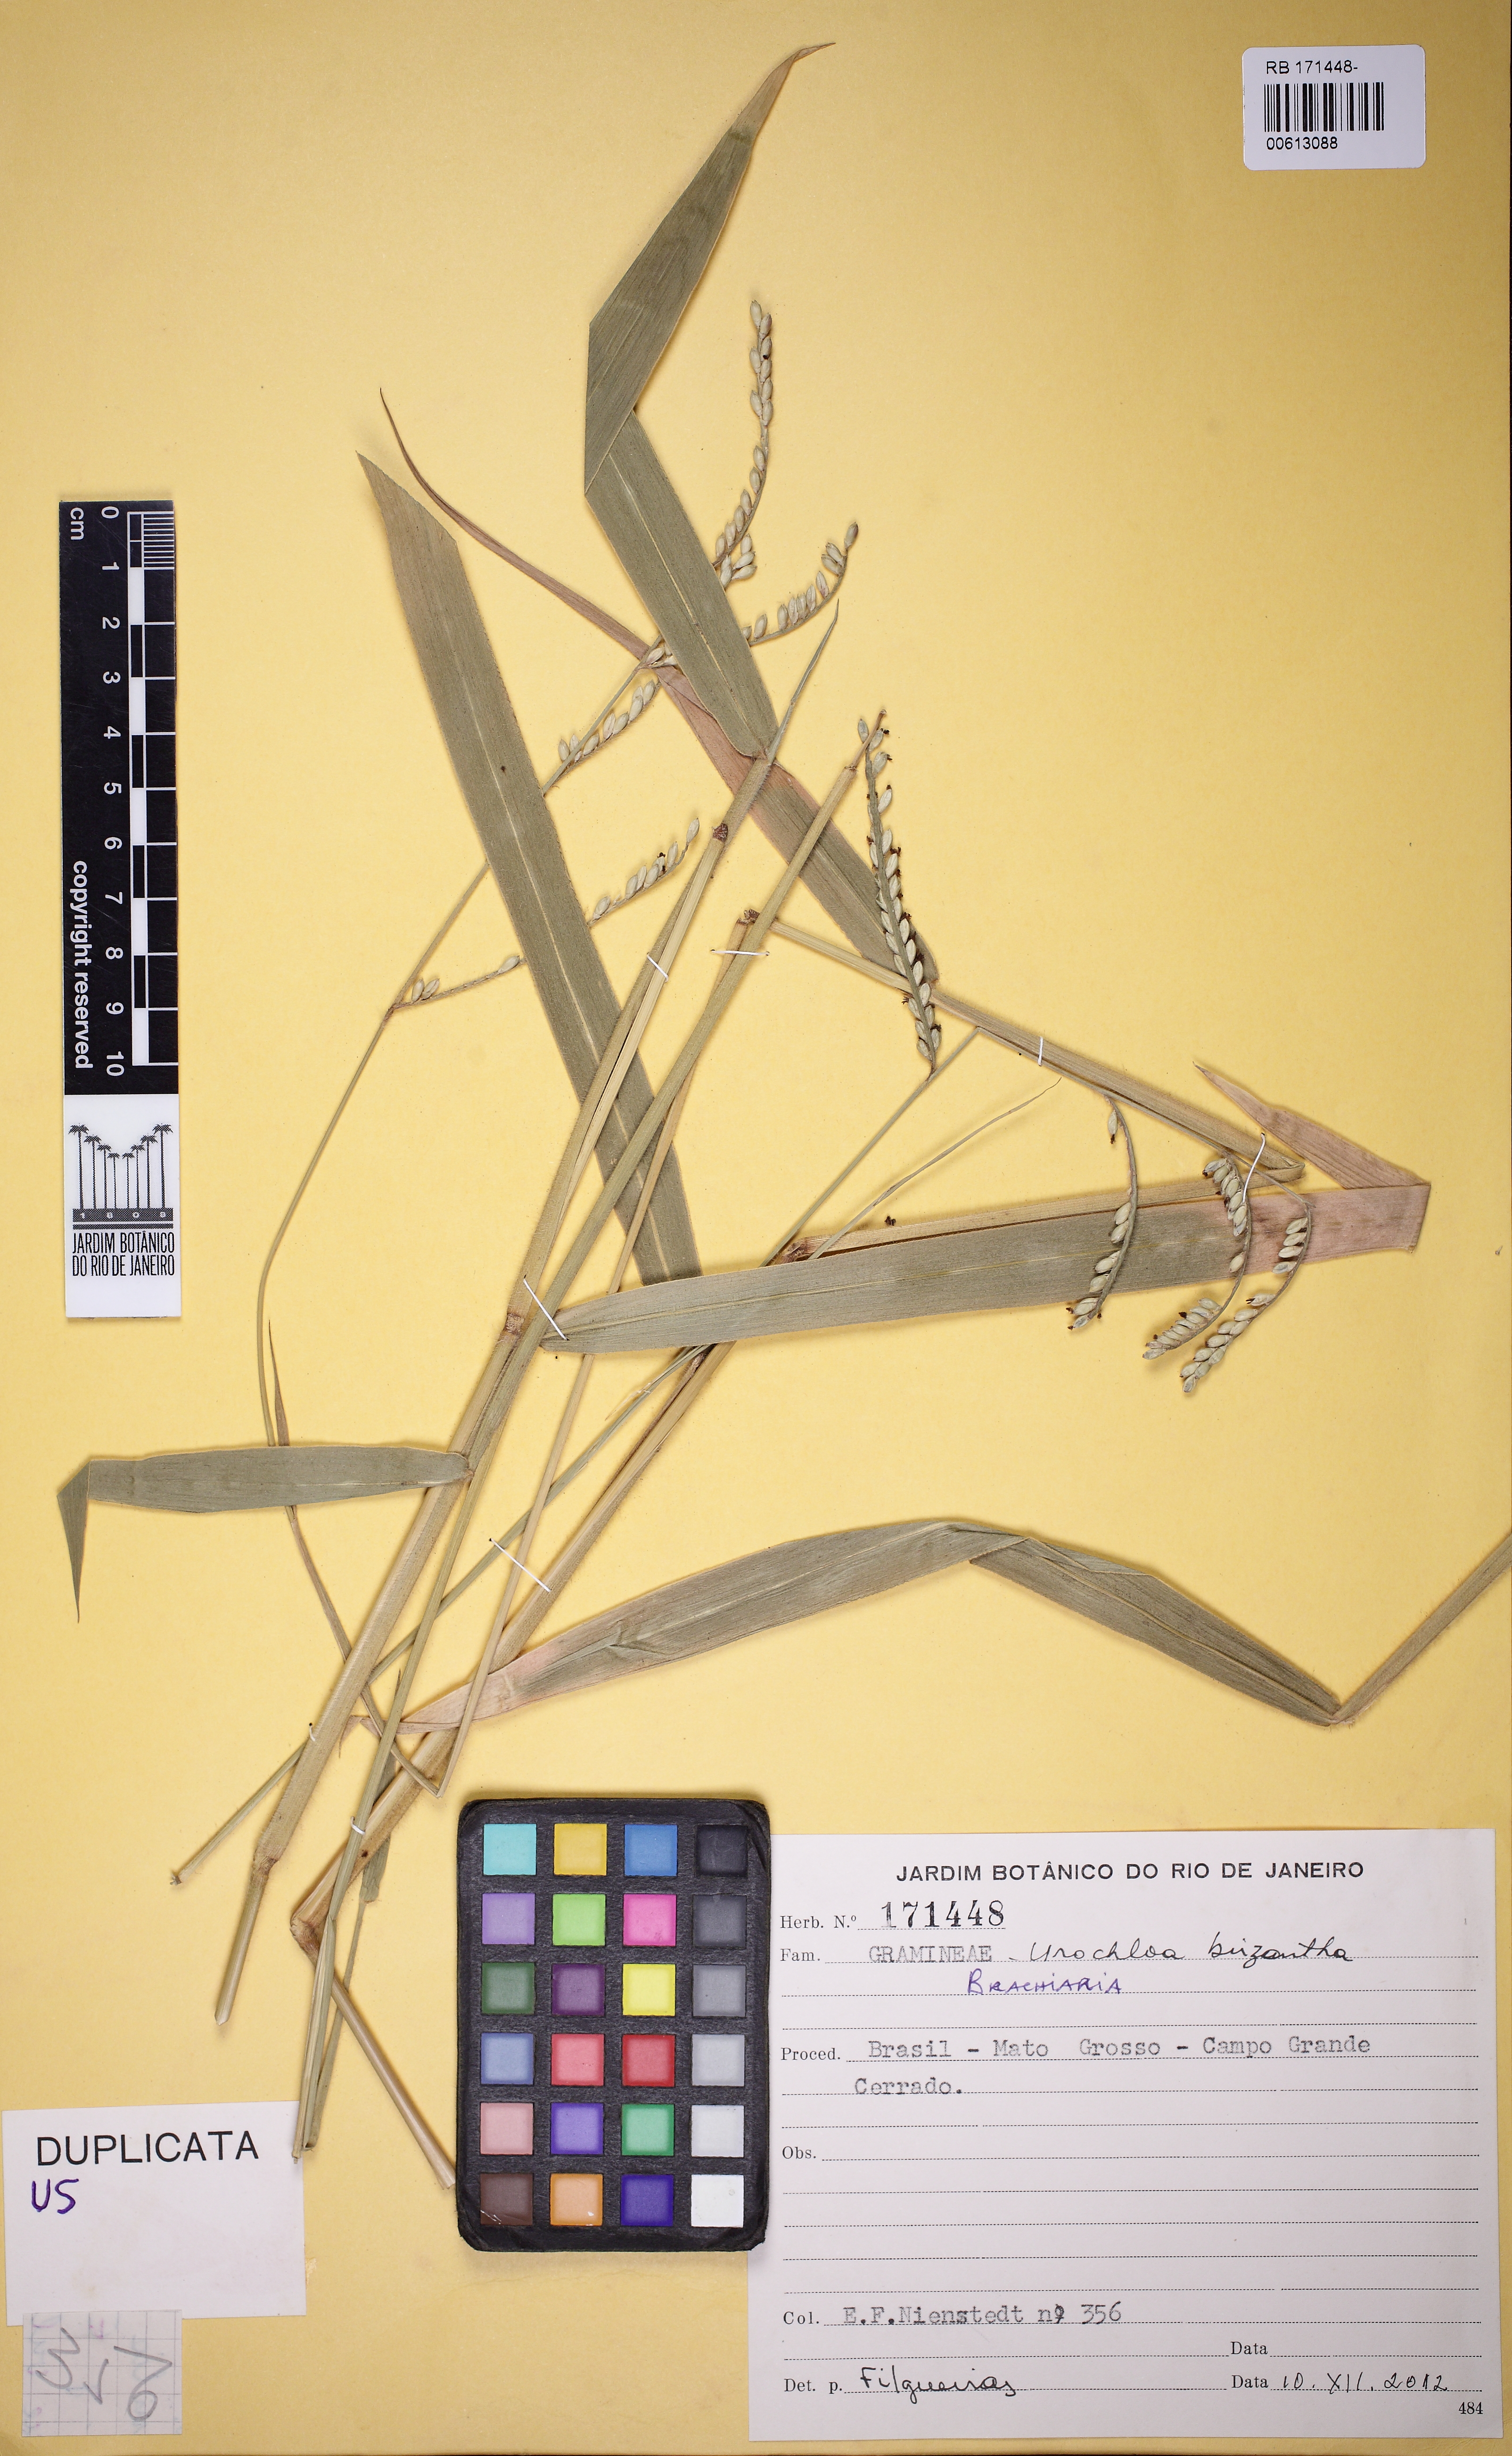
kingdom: Plantae
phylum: Tracheophyta
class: Liliopsida
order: Poales
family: Poaceae
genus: Urochloa
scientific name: Urochloa brizantha
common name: Palisade signalgrass
